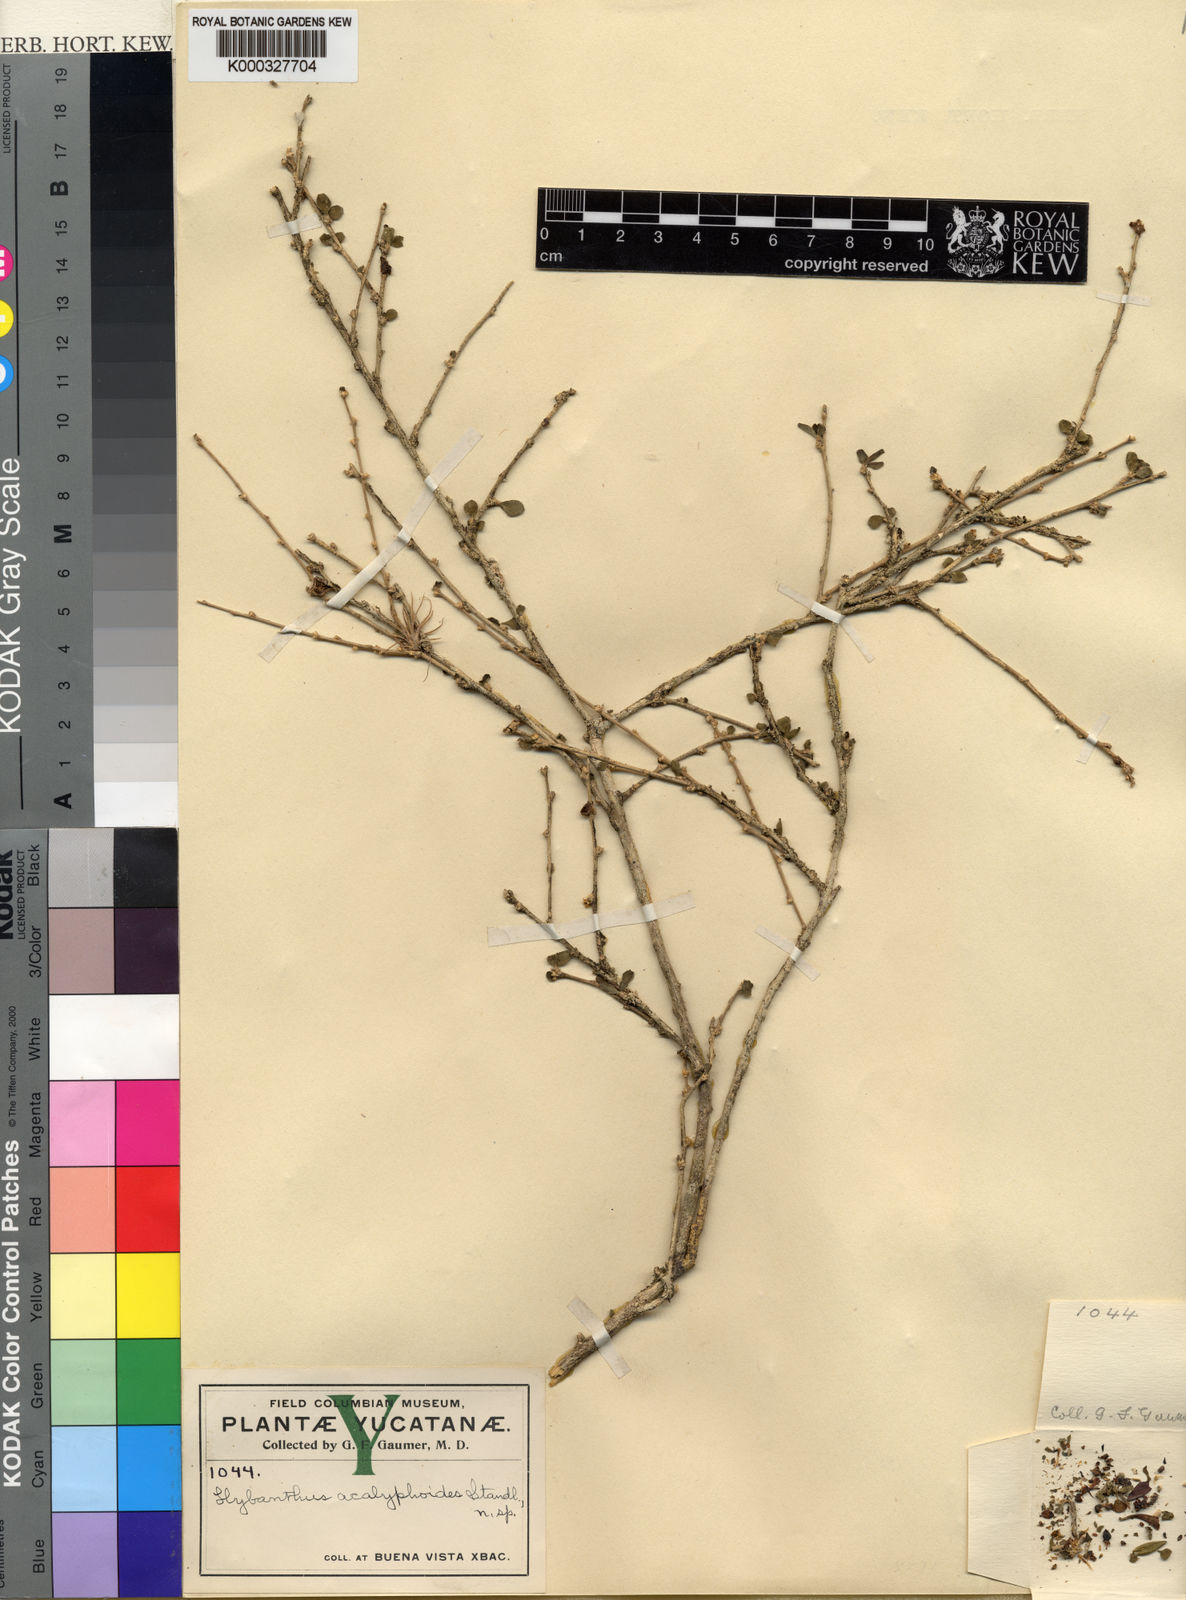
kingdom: Plantae
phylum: Tracheophyta
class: Magnoliopsida
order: Malpighiales
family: Violaceae
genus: Hybanthus
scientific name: Hybanthus
